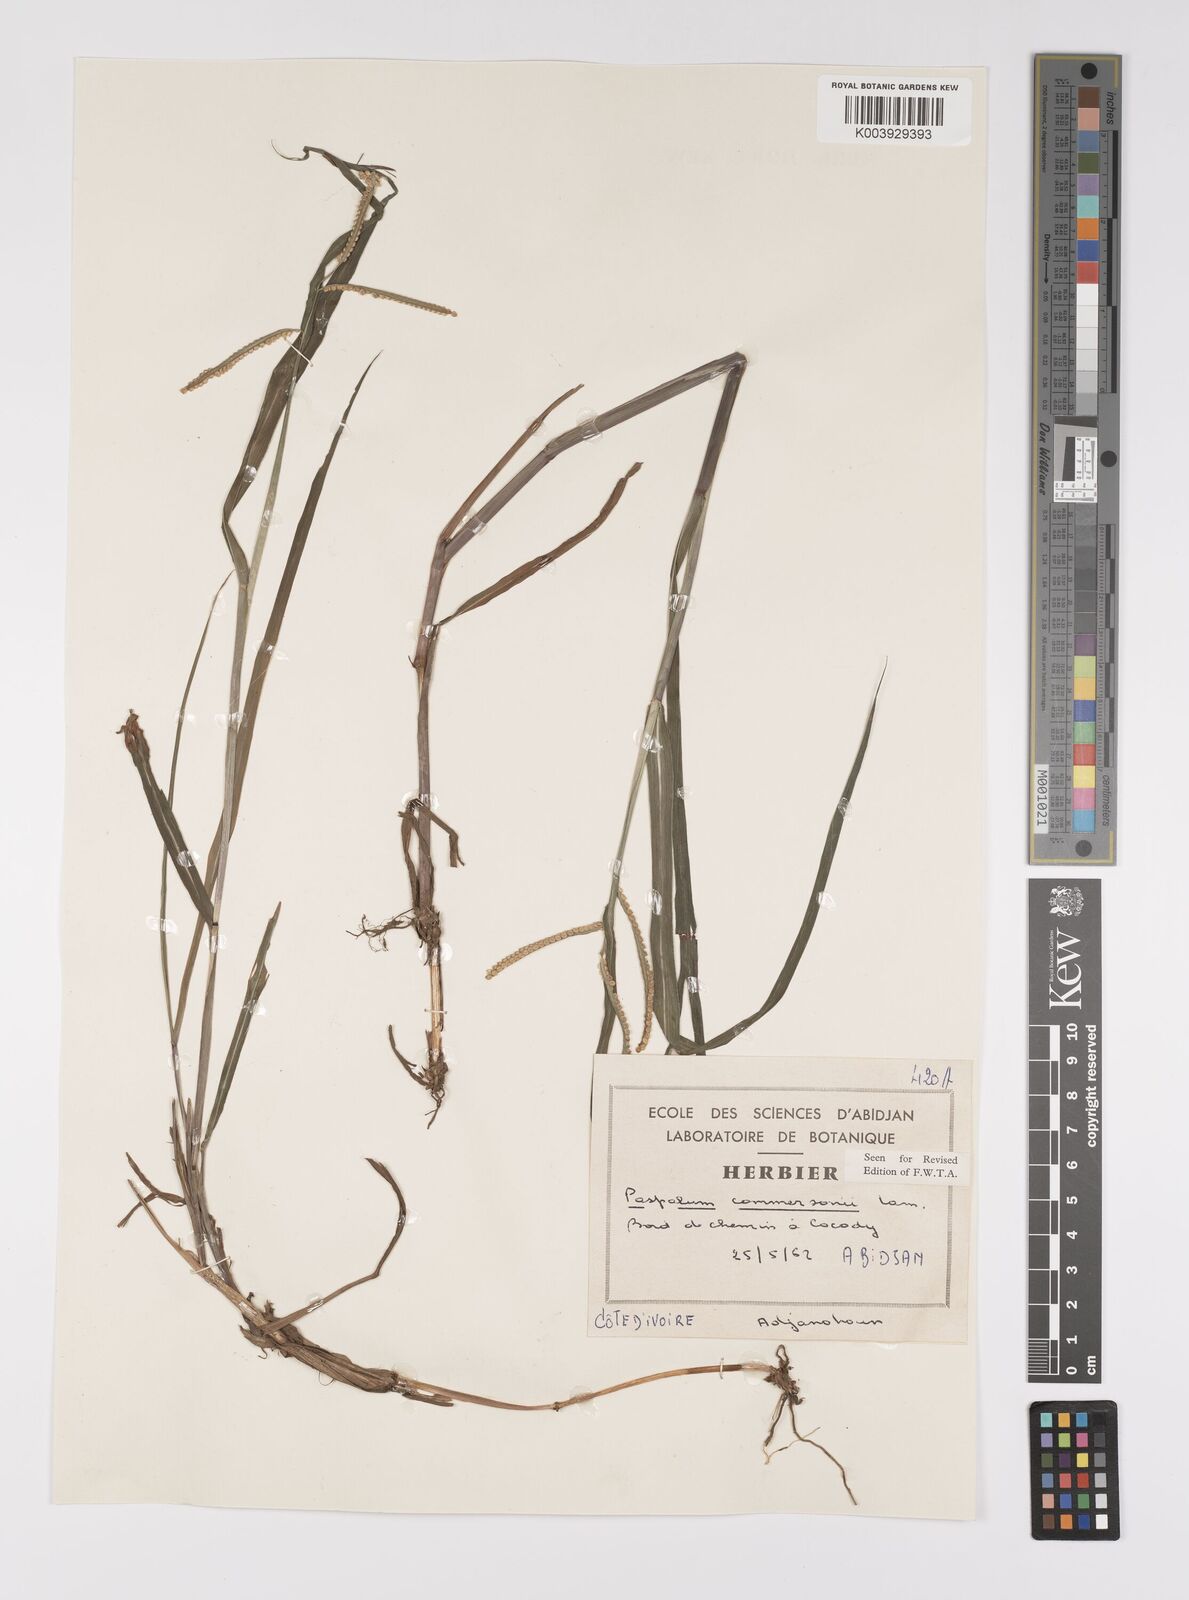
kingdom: Plantae
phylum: Tracheophyta
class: Liliopsida
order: Poales
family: Poaceae
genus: Paspalum
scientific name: Paspalum scrobiculatum
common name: Kodo millet
